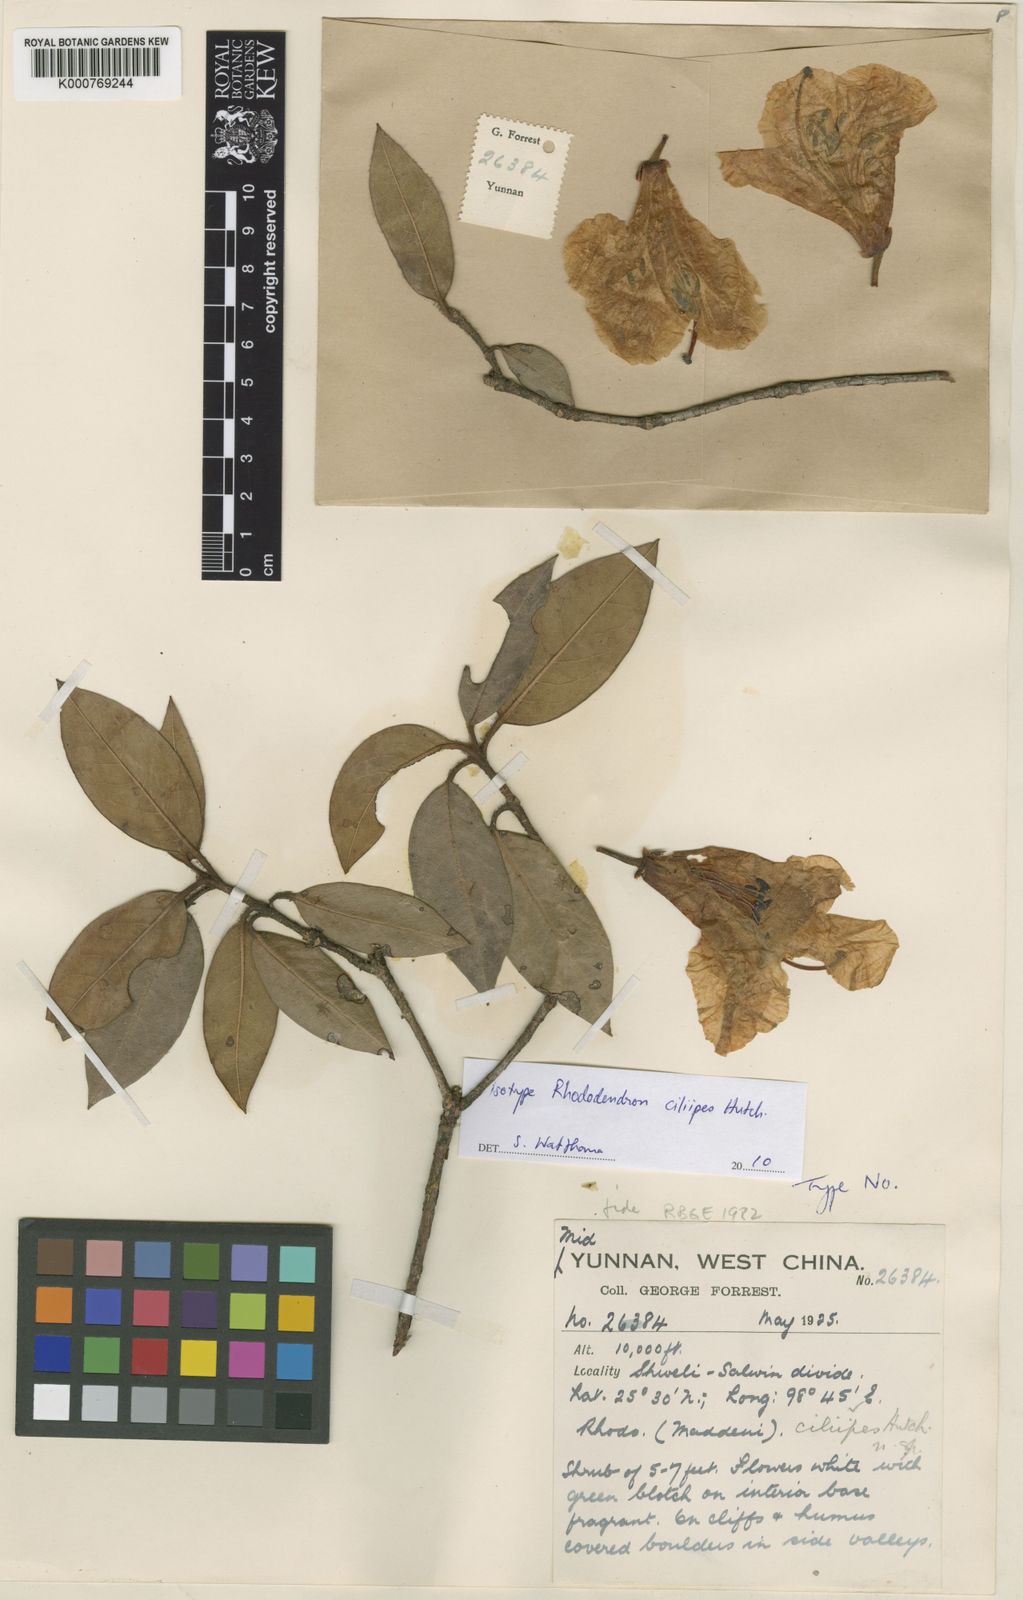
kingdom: Plantae
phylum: Tracheophyta
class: Magnoliopsida
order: Ericales
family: Ericaceae
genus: Rhododendron
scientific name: Rhododendron ciliipes
